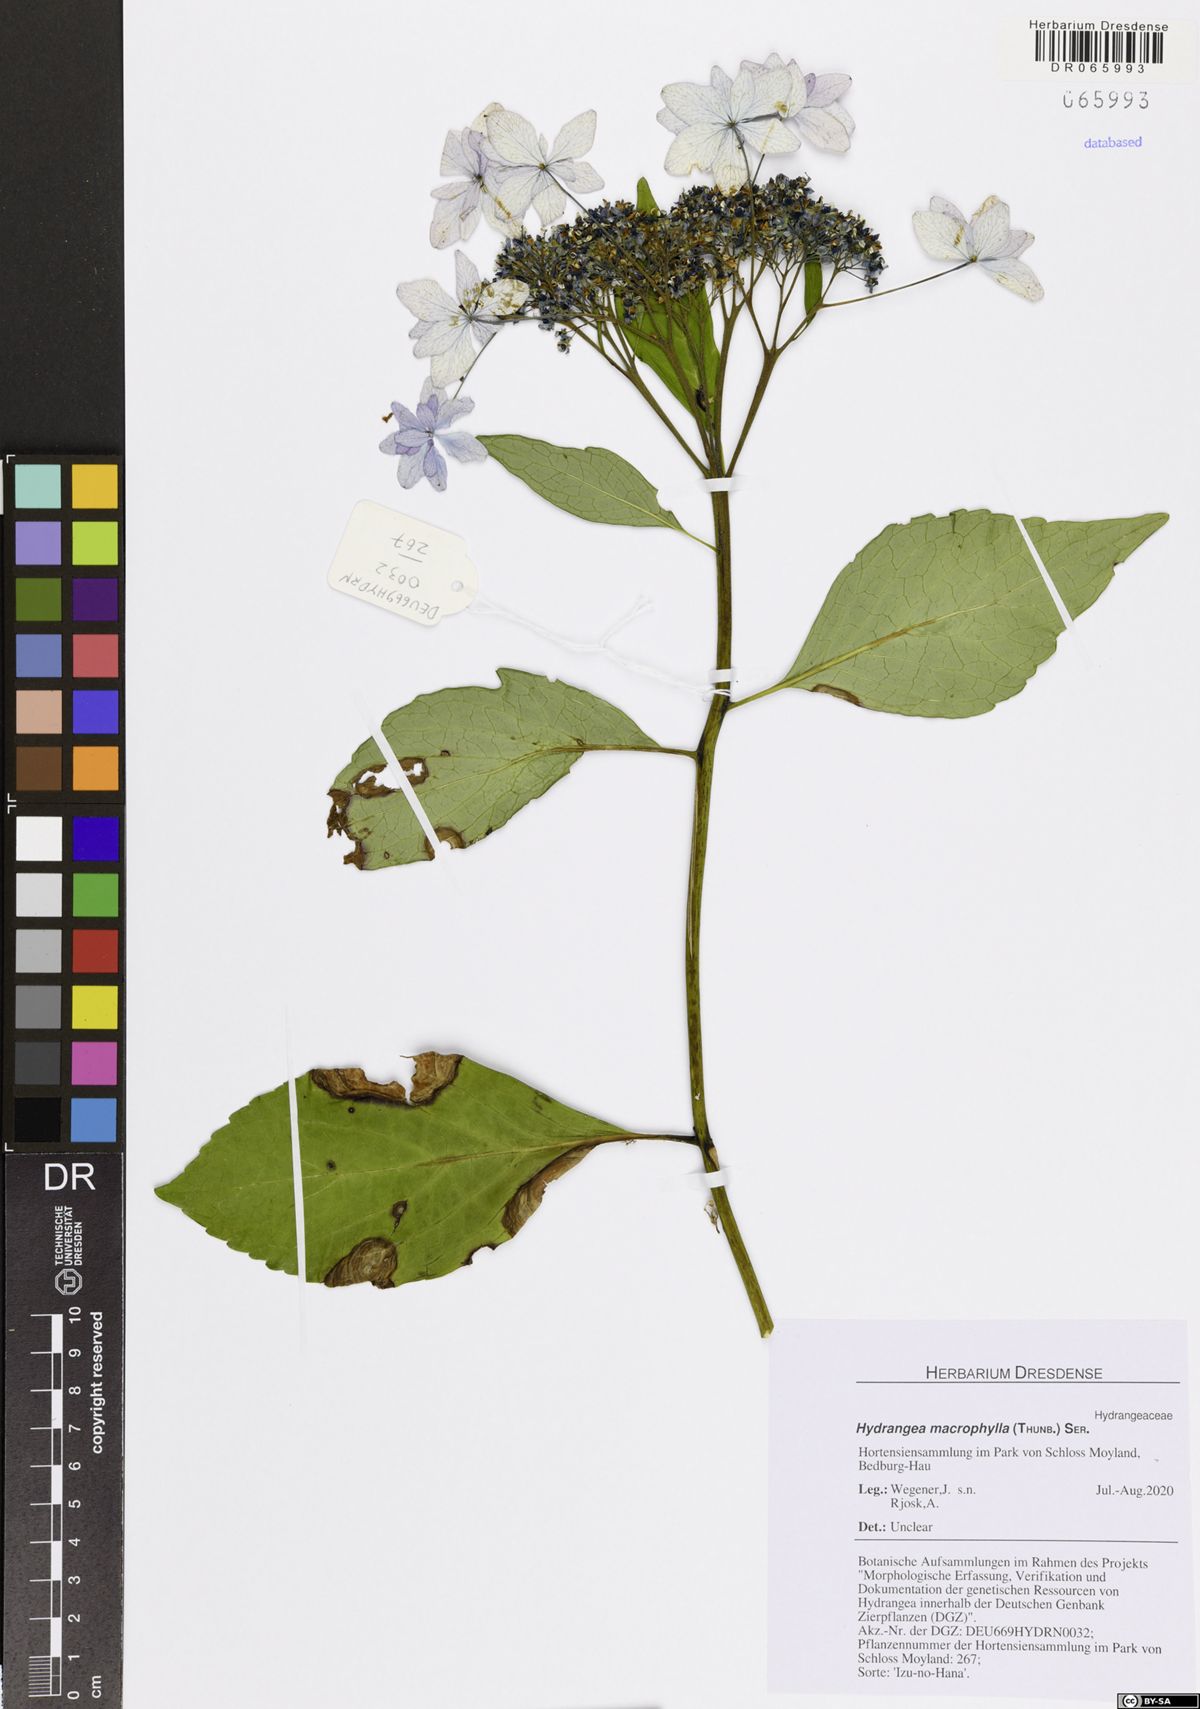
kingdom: Plantae
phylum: Tracheophyta
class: Magnoliopsida
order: Cornales
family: Hydrangeaceae
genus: Hydrangea
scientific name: Hydrangea macrophylla
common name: Hydrangea
